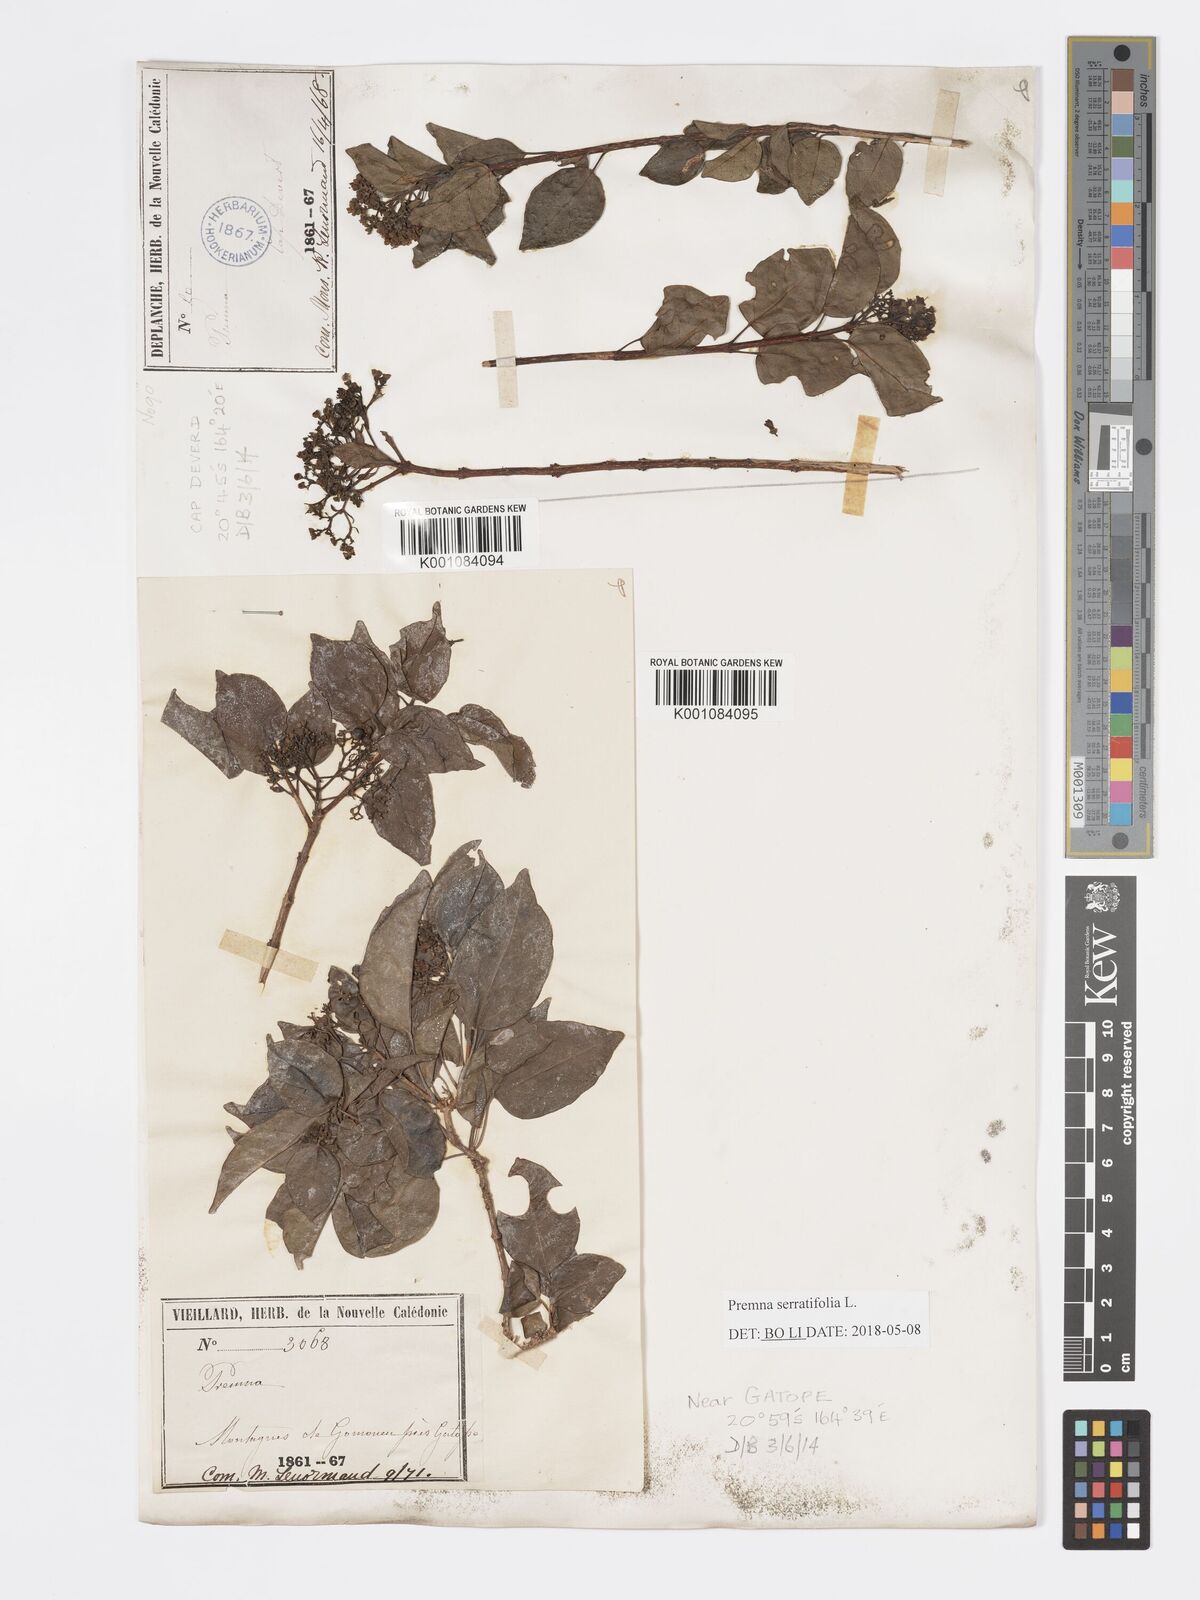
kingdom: Plantae
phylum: Tracheophyta
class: Magnoliopsida
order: Lamiales
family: Lamiaceae
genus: Premna
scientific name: Premna serratifolia
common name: Bastard guelder
